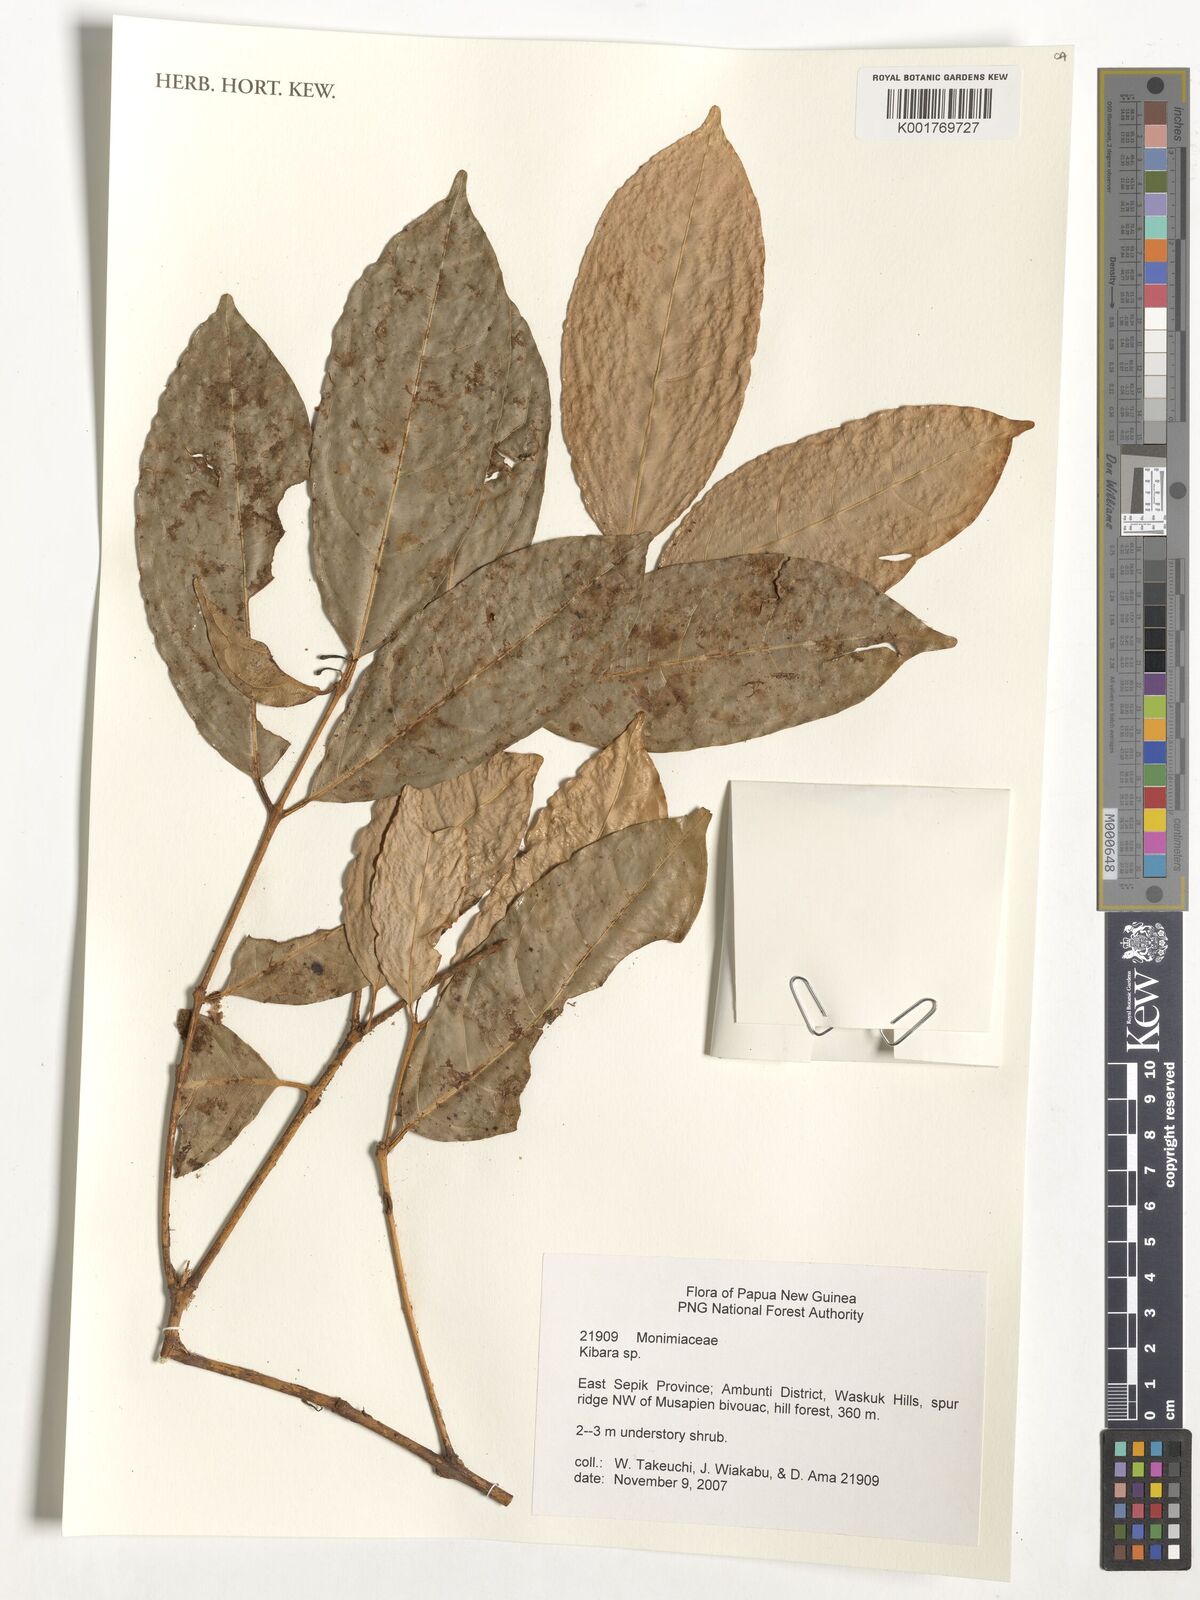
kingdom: Plantae
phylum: Tracheophyta
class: Magnoliopsida
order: Laurales
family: Monimiaceae
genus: Kibara
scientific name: Kibara
